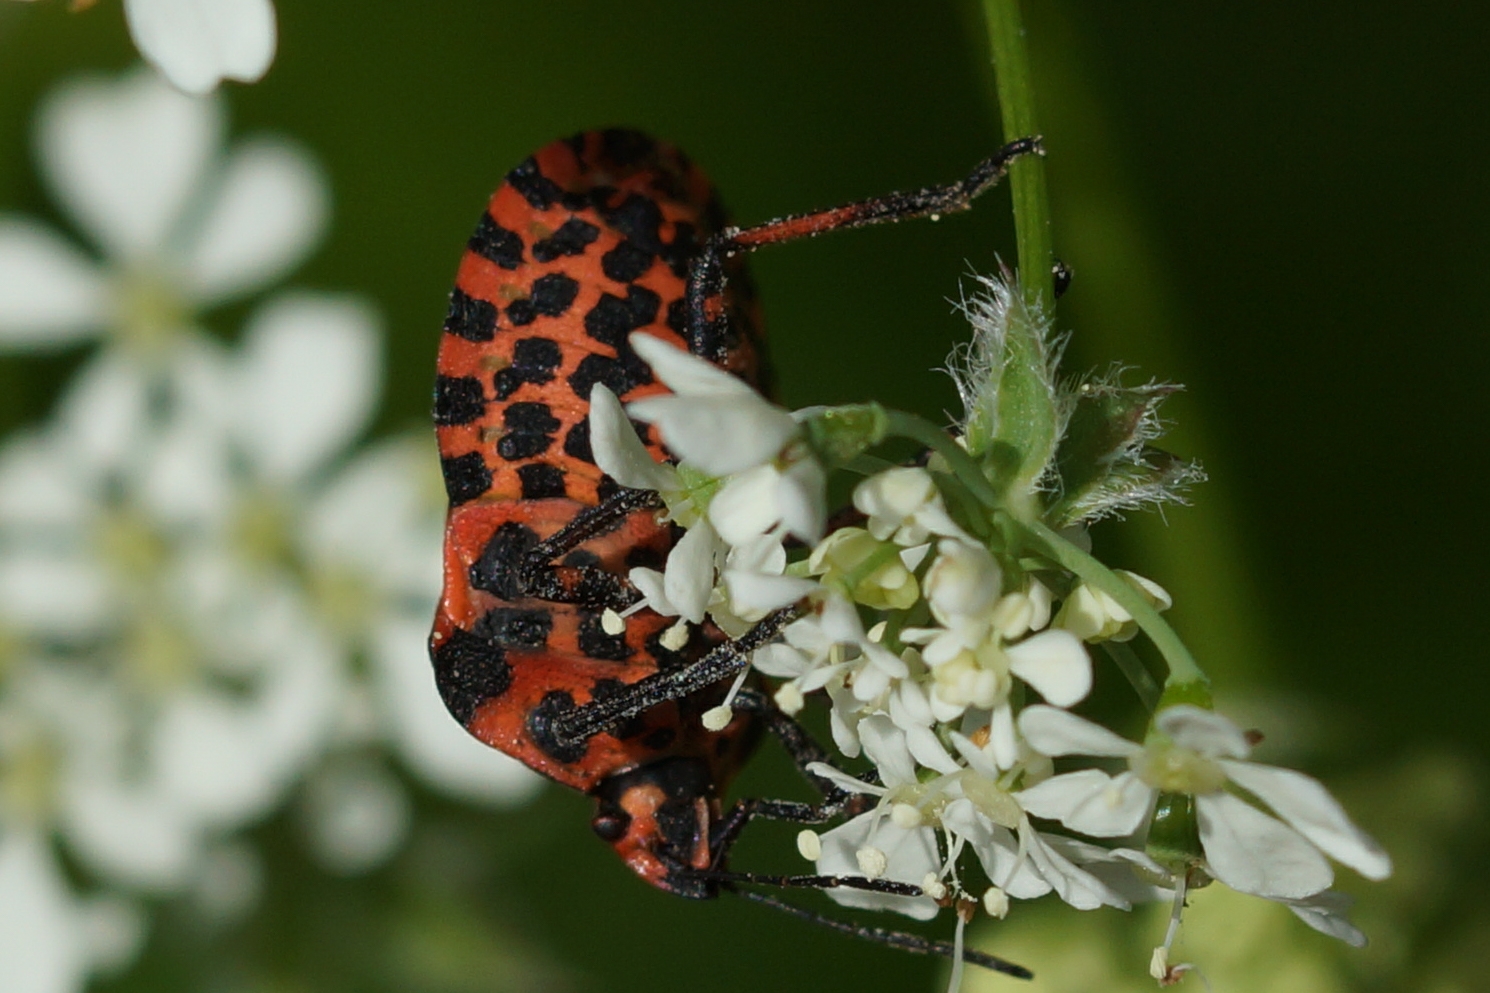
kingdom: Animalia
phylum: Arthropoda
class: Insecta
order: Hemiptera
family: Pentatomidae
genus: Graphosoma
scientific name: Graphosoma italicum
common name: Stribetæge
